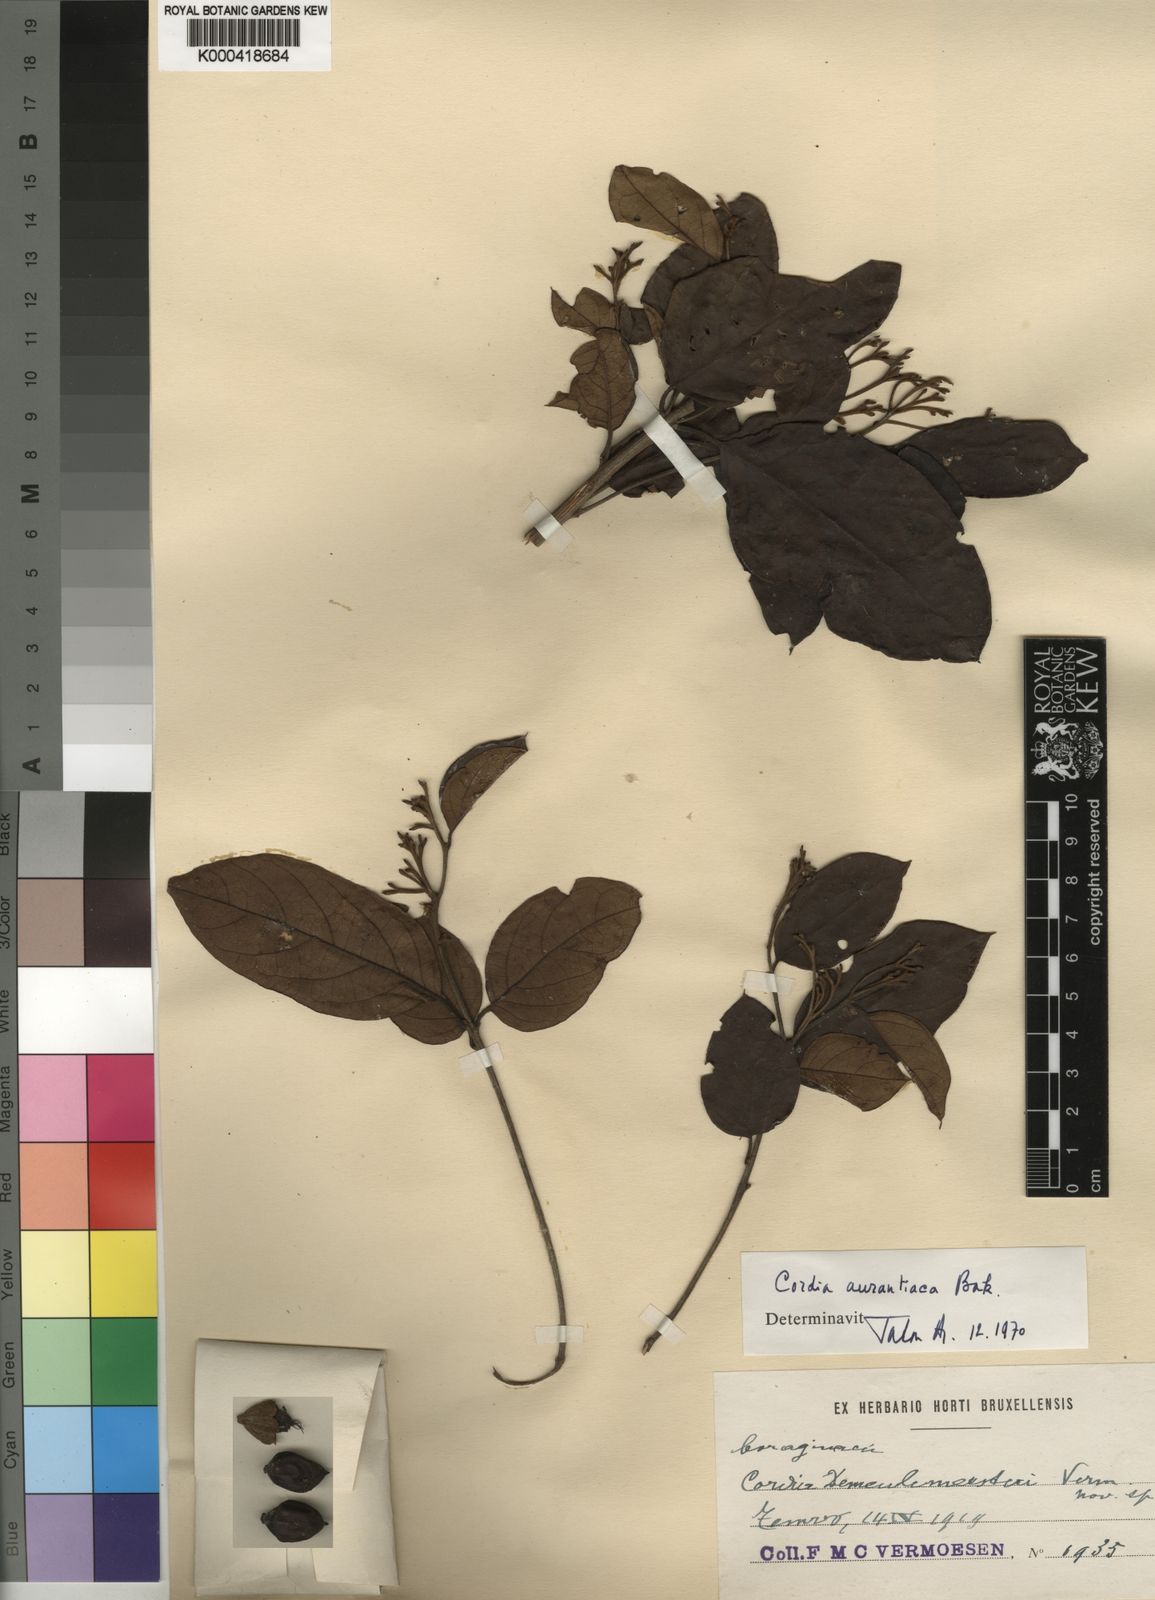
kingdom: Plantae
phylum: Tracheophyta
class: Magnoliopsida
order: Boraginales
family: Cordiaceae
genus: Cordia
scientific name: Cordia aurantiaca
